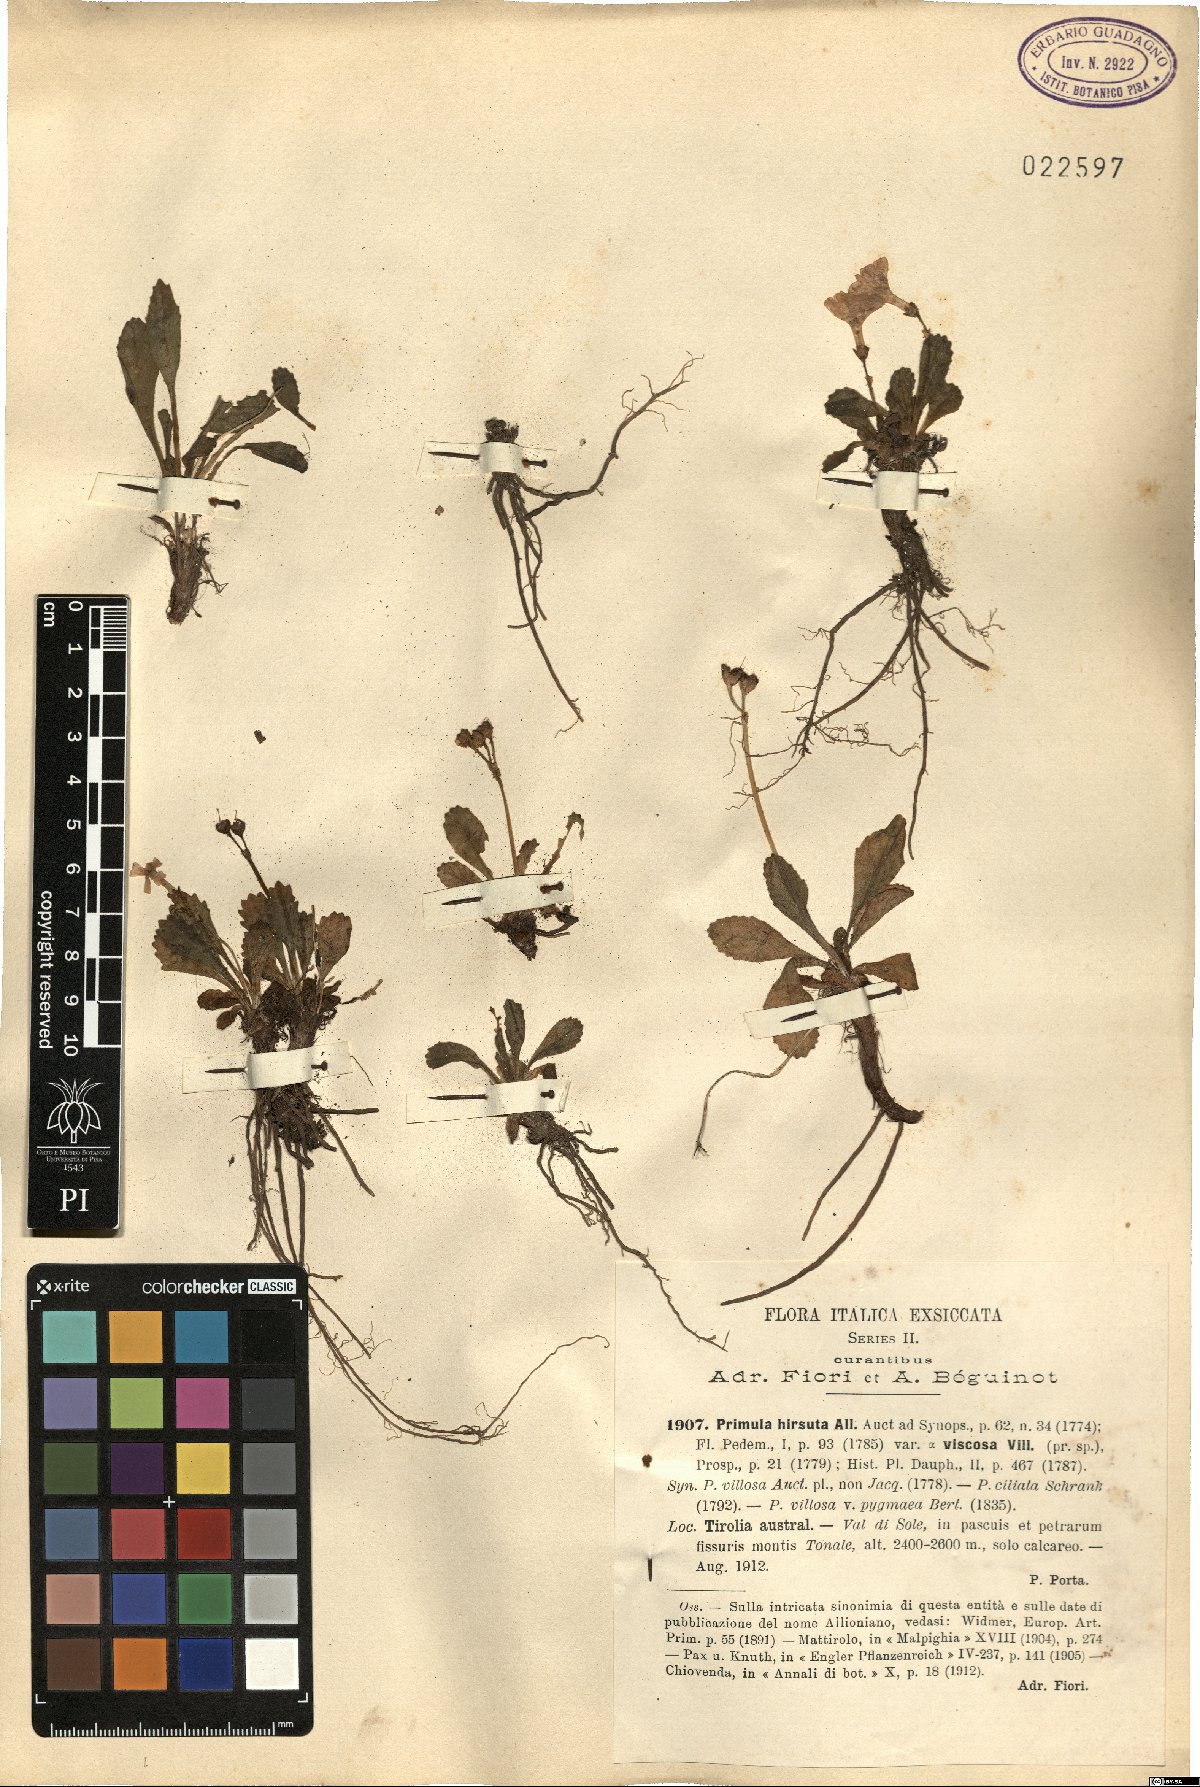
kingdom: Plantae
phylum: Tracheophyta
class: Magnoliopsida
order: Ericales
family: Primulaceae
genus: Primula
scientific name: Primula hirsuta
